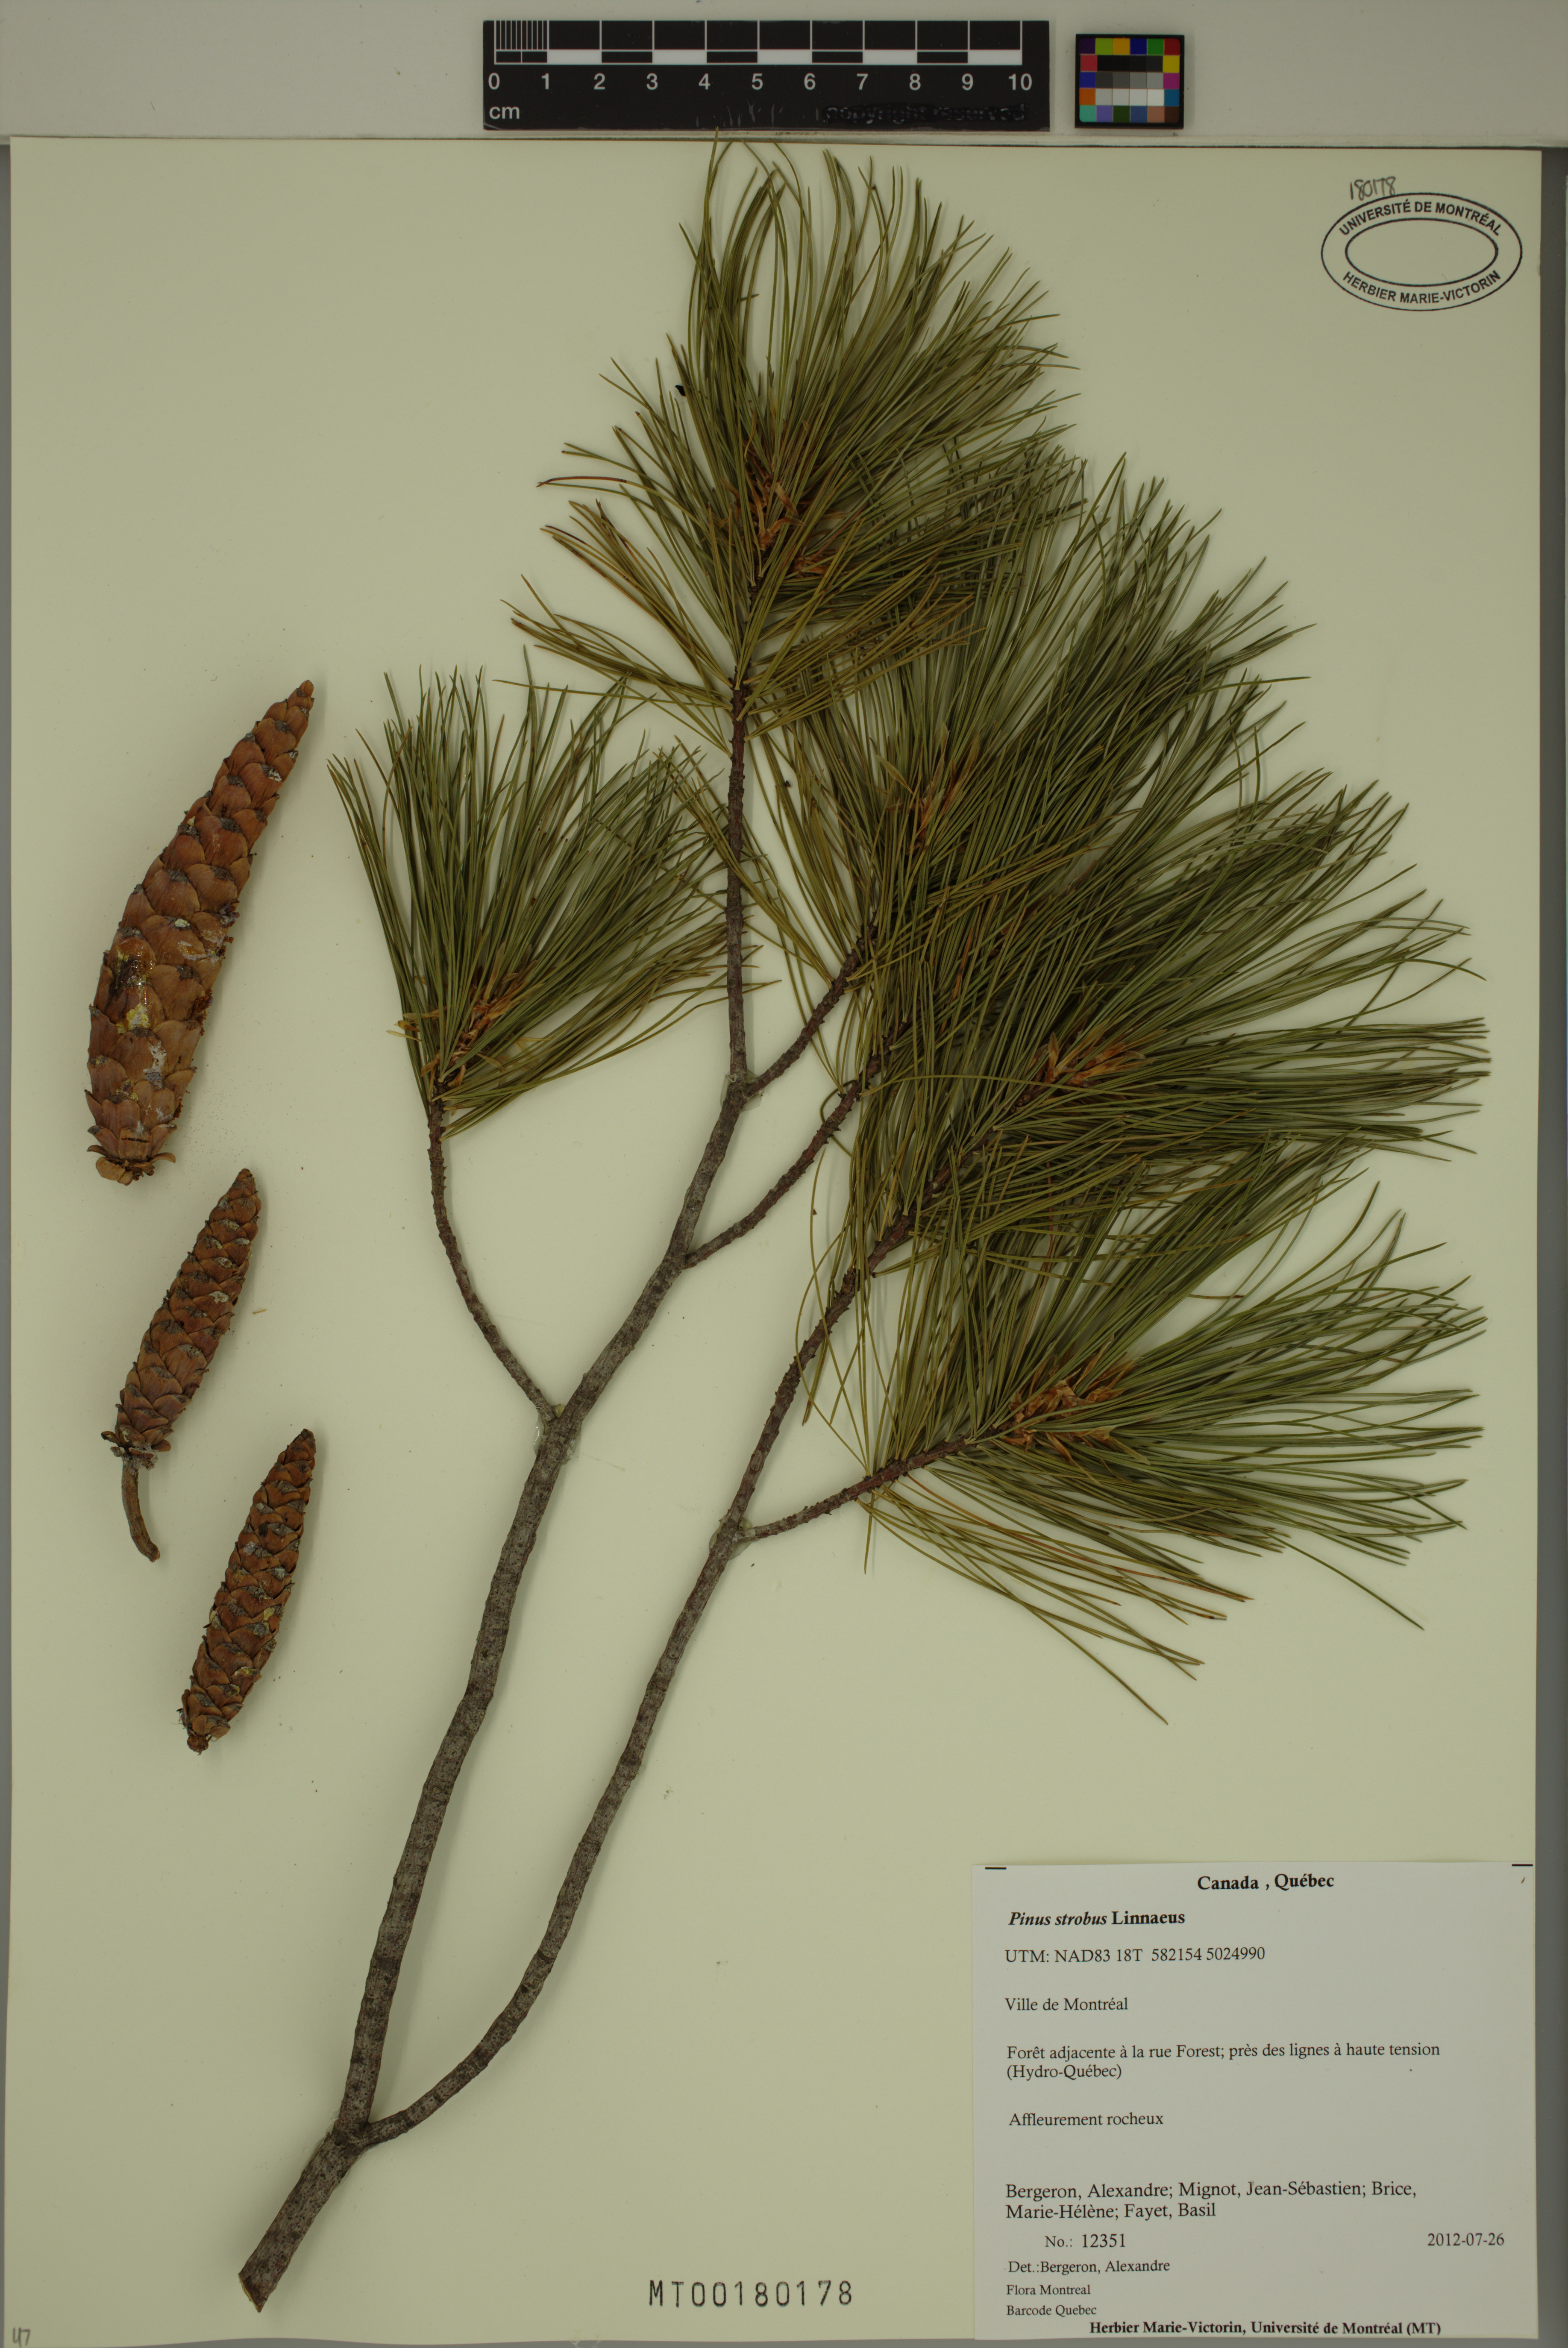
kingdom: Plantae
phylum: Tracheophyta
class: Pinopsida
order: Pinales
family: Pinaceae
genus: Pinus
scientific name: Pinus strobus
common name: Weymouth pine
